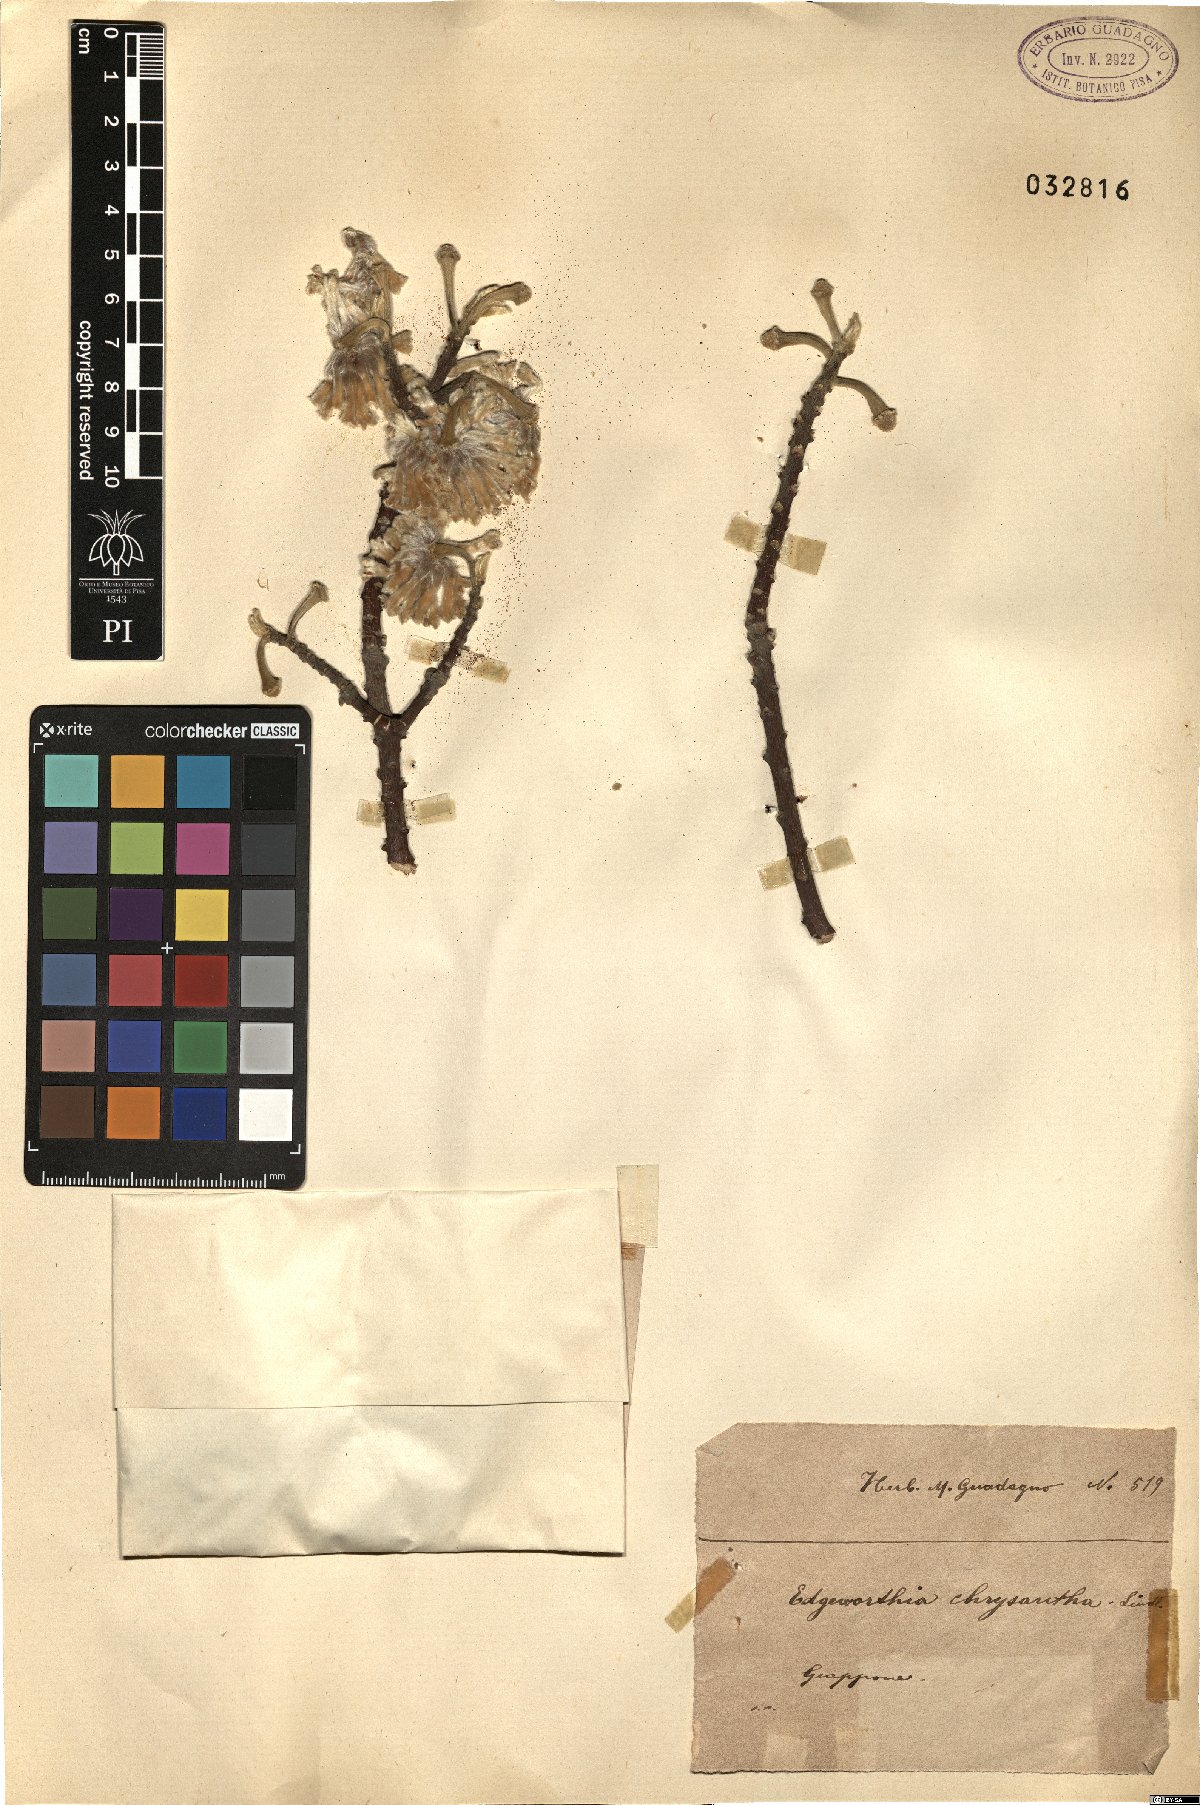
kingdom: Plantae
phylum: Tracheophyta
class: Magnoliopsida
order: Malvales
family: Thymelaeaceae
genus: Edgeworthia
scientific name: Edgeworthia chrysantha
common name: Oriental paperbush
